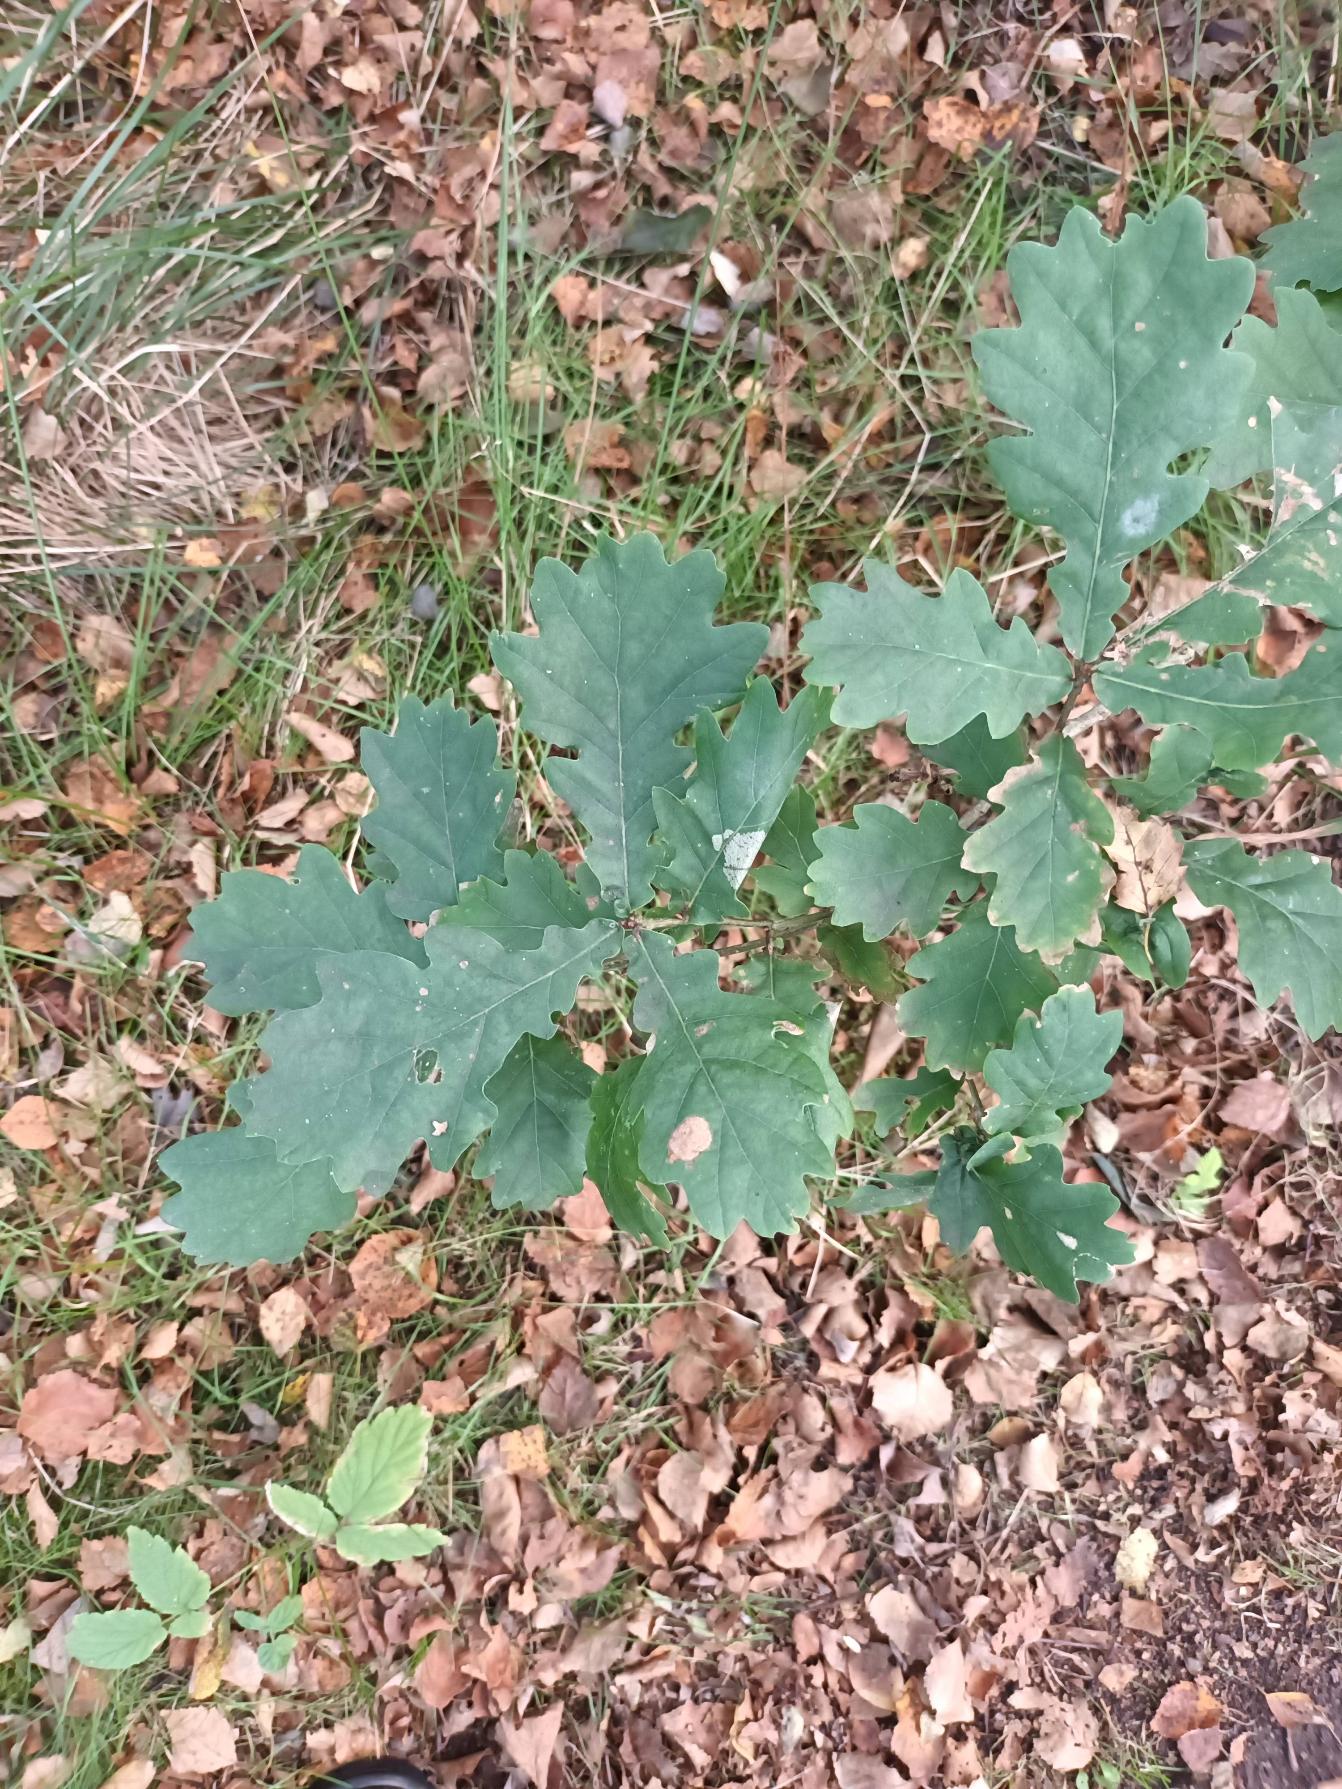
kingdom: Plantae
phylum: Tracheophyta
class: Magnoliopsida
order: Fagales
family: Fagaceae
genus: Quercus
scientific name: Quercus robur
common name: Stilk-eg/almindelig eg
